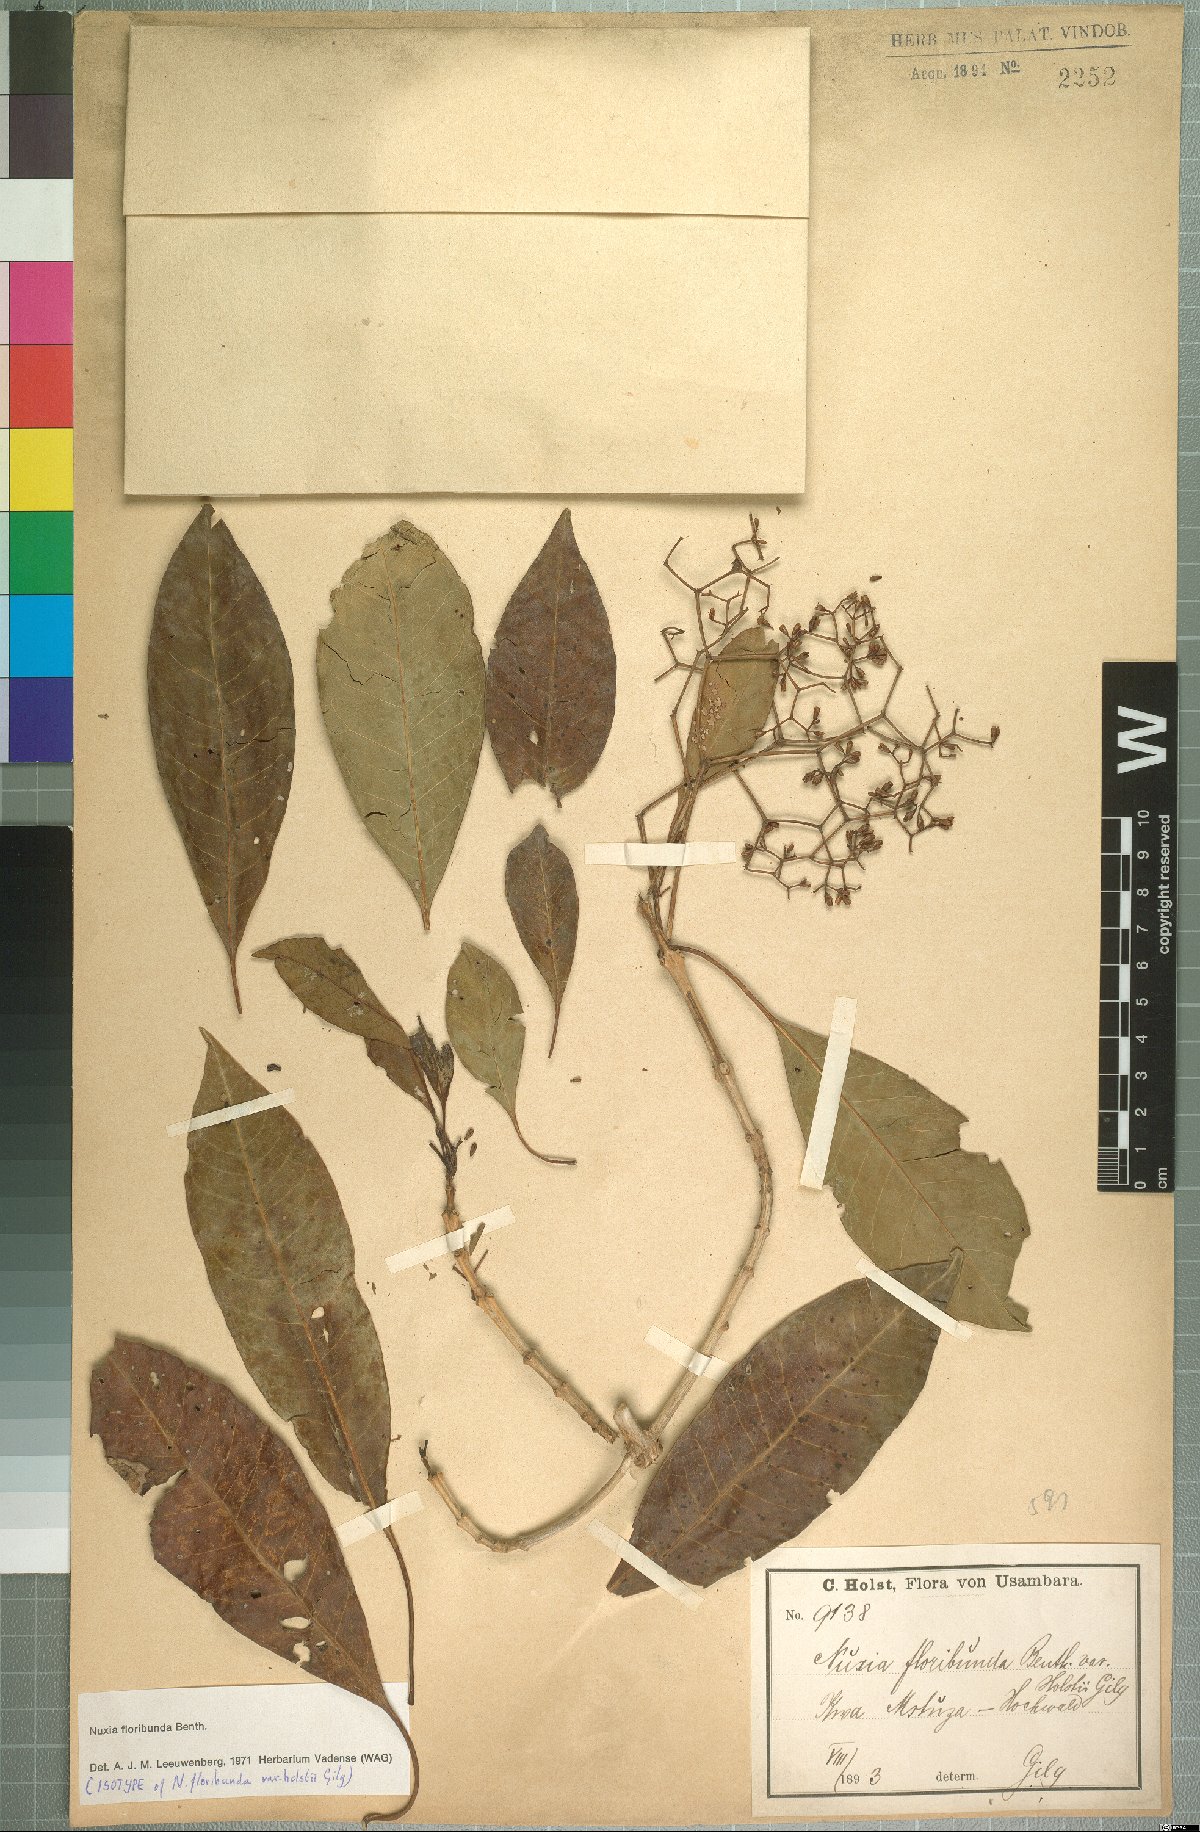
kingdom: Plantae
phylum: Tracheophyta
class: Magnoliopsida
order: Lamiales
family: Stilbaceae
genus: Nuxia
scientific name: Nuxia floribunda
